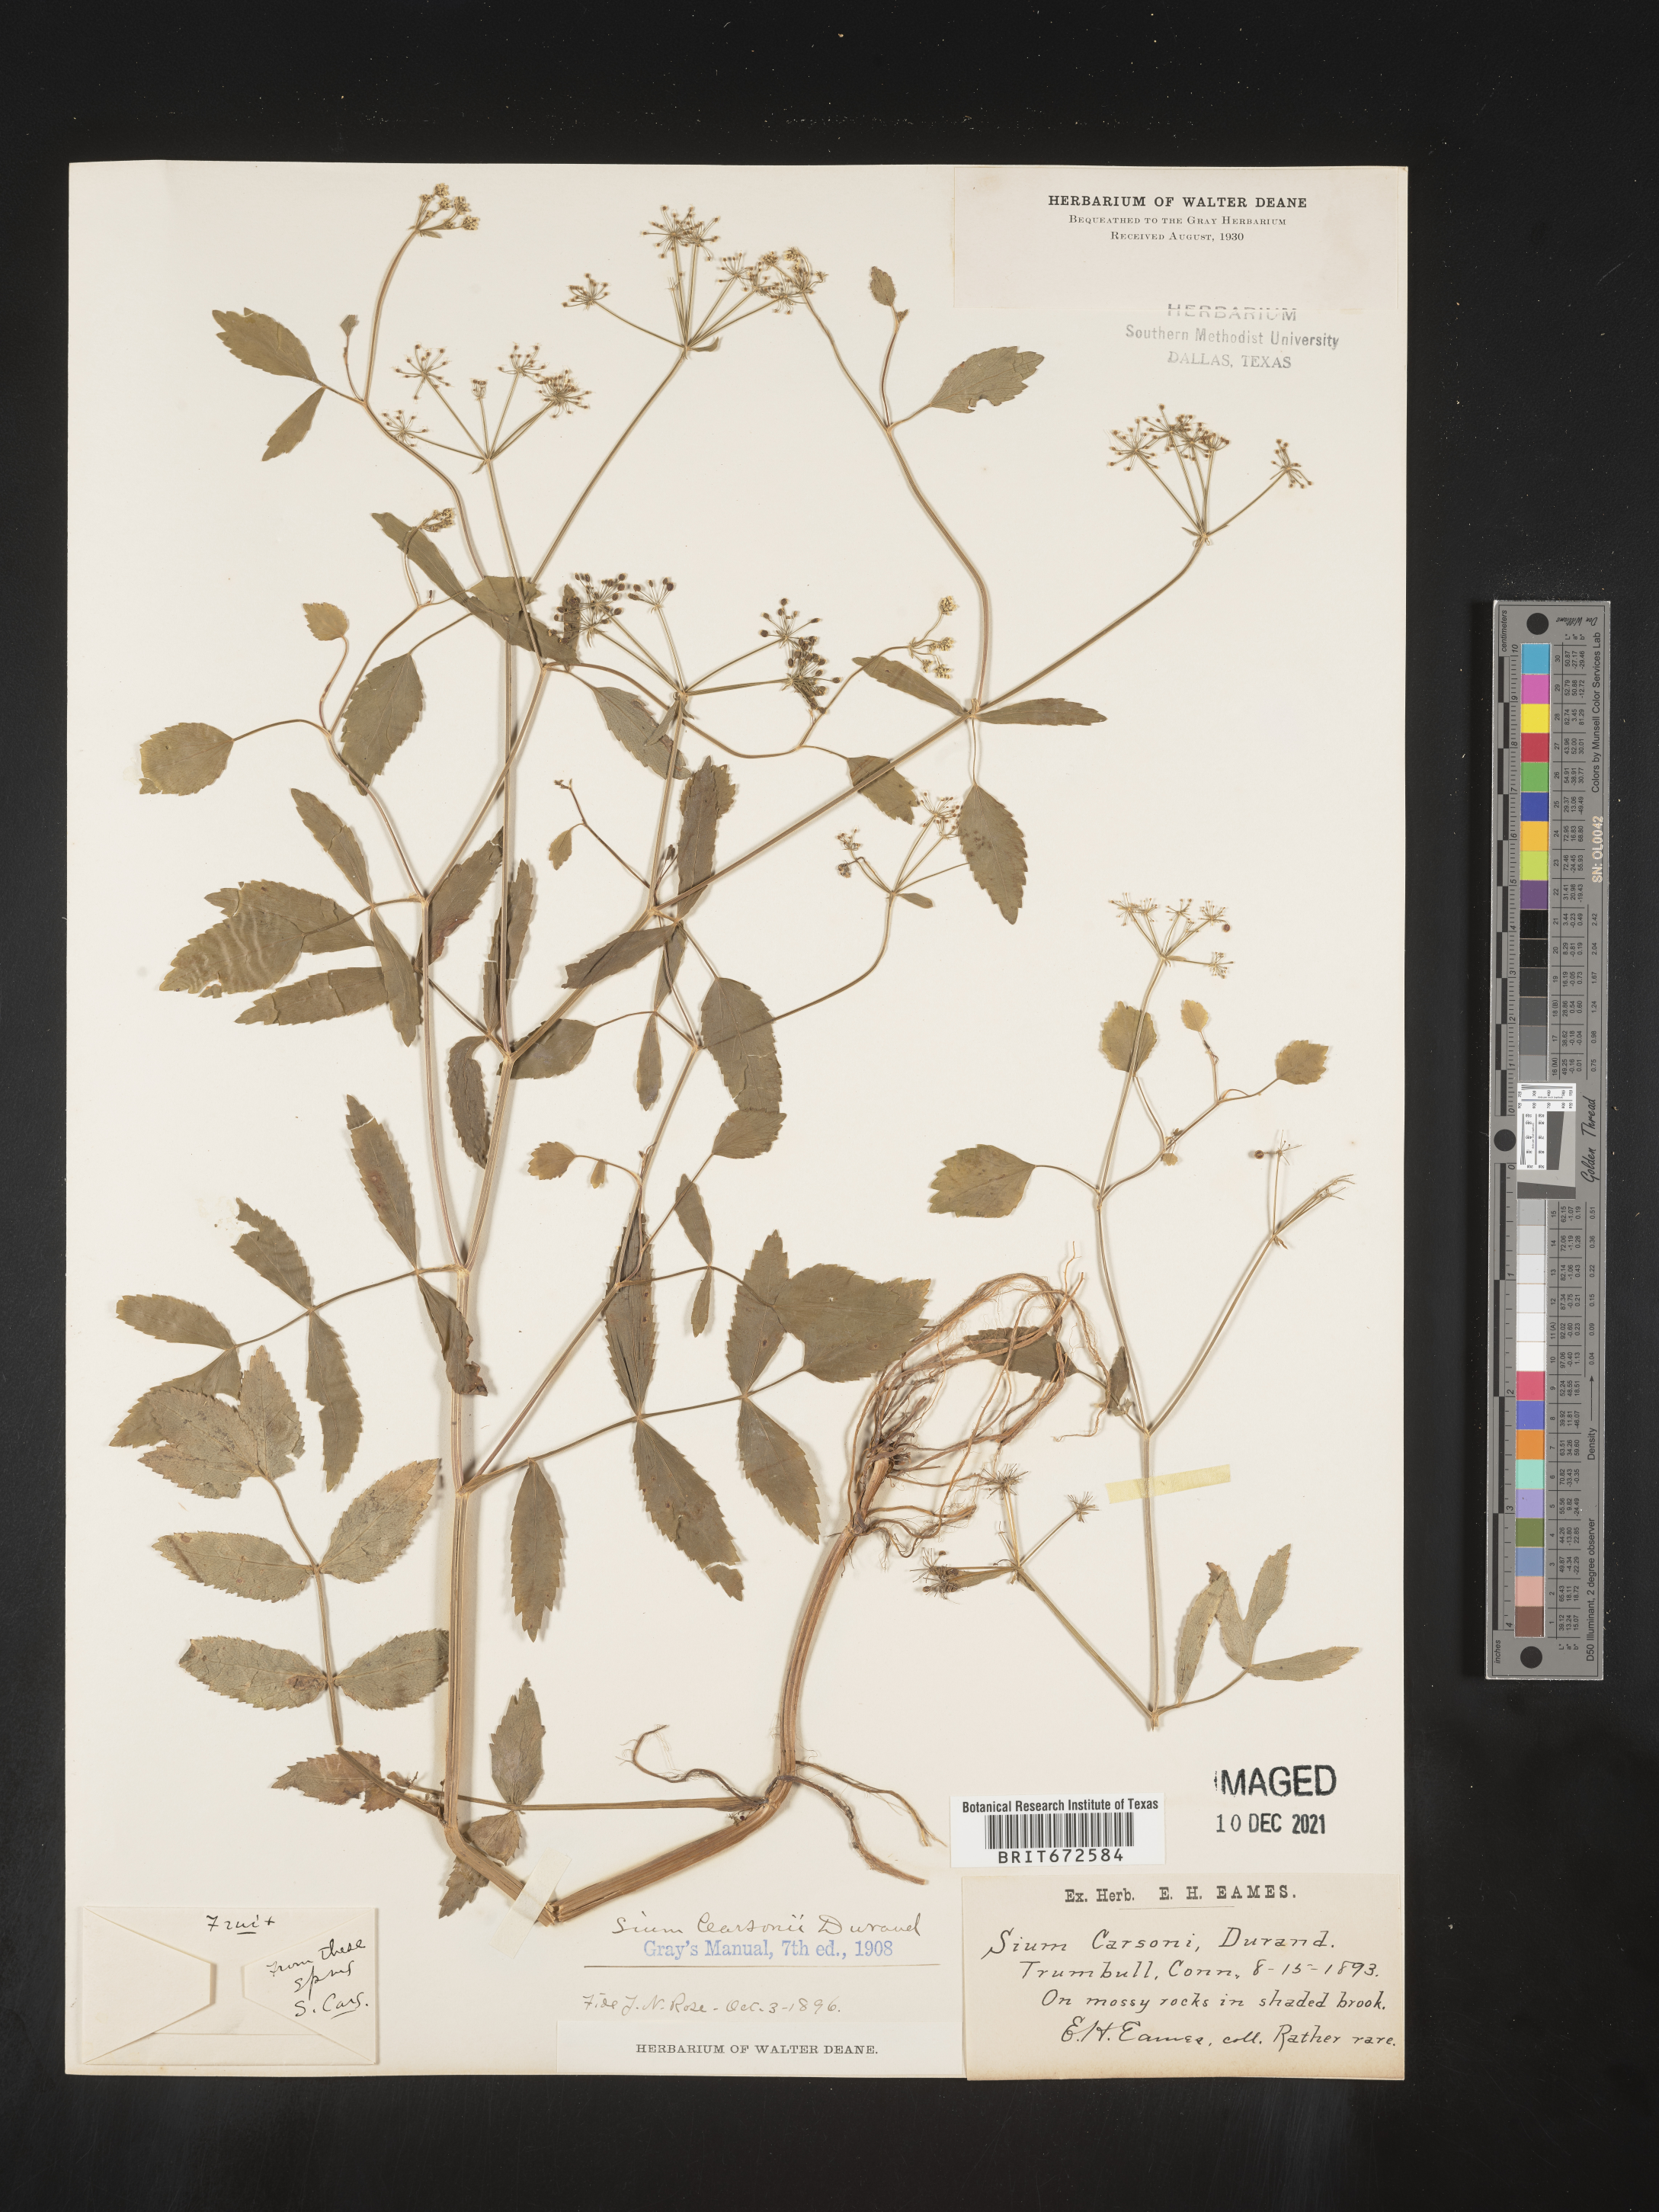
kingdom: Plantae
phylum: Tracheophyta
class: Magnoliopsida
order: Apiales
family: Apiaceae
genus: Sium
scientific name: Sium carsonii
